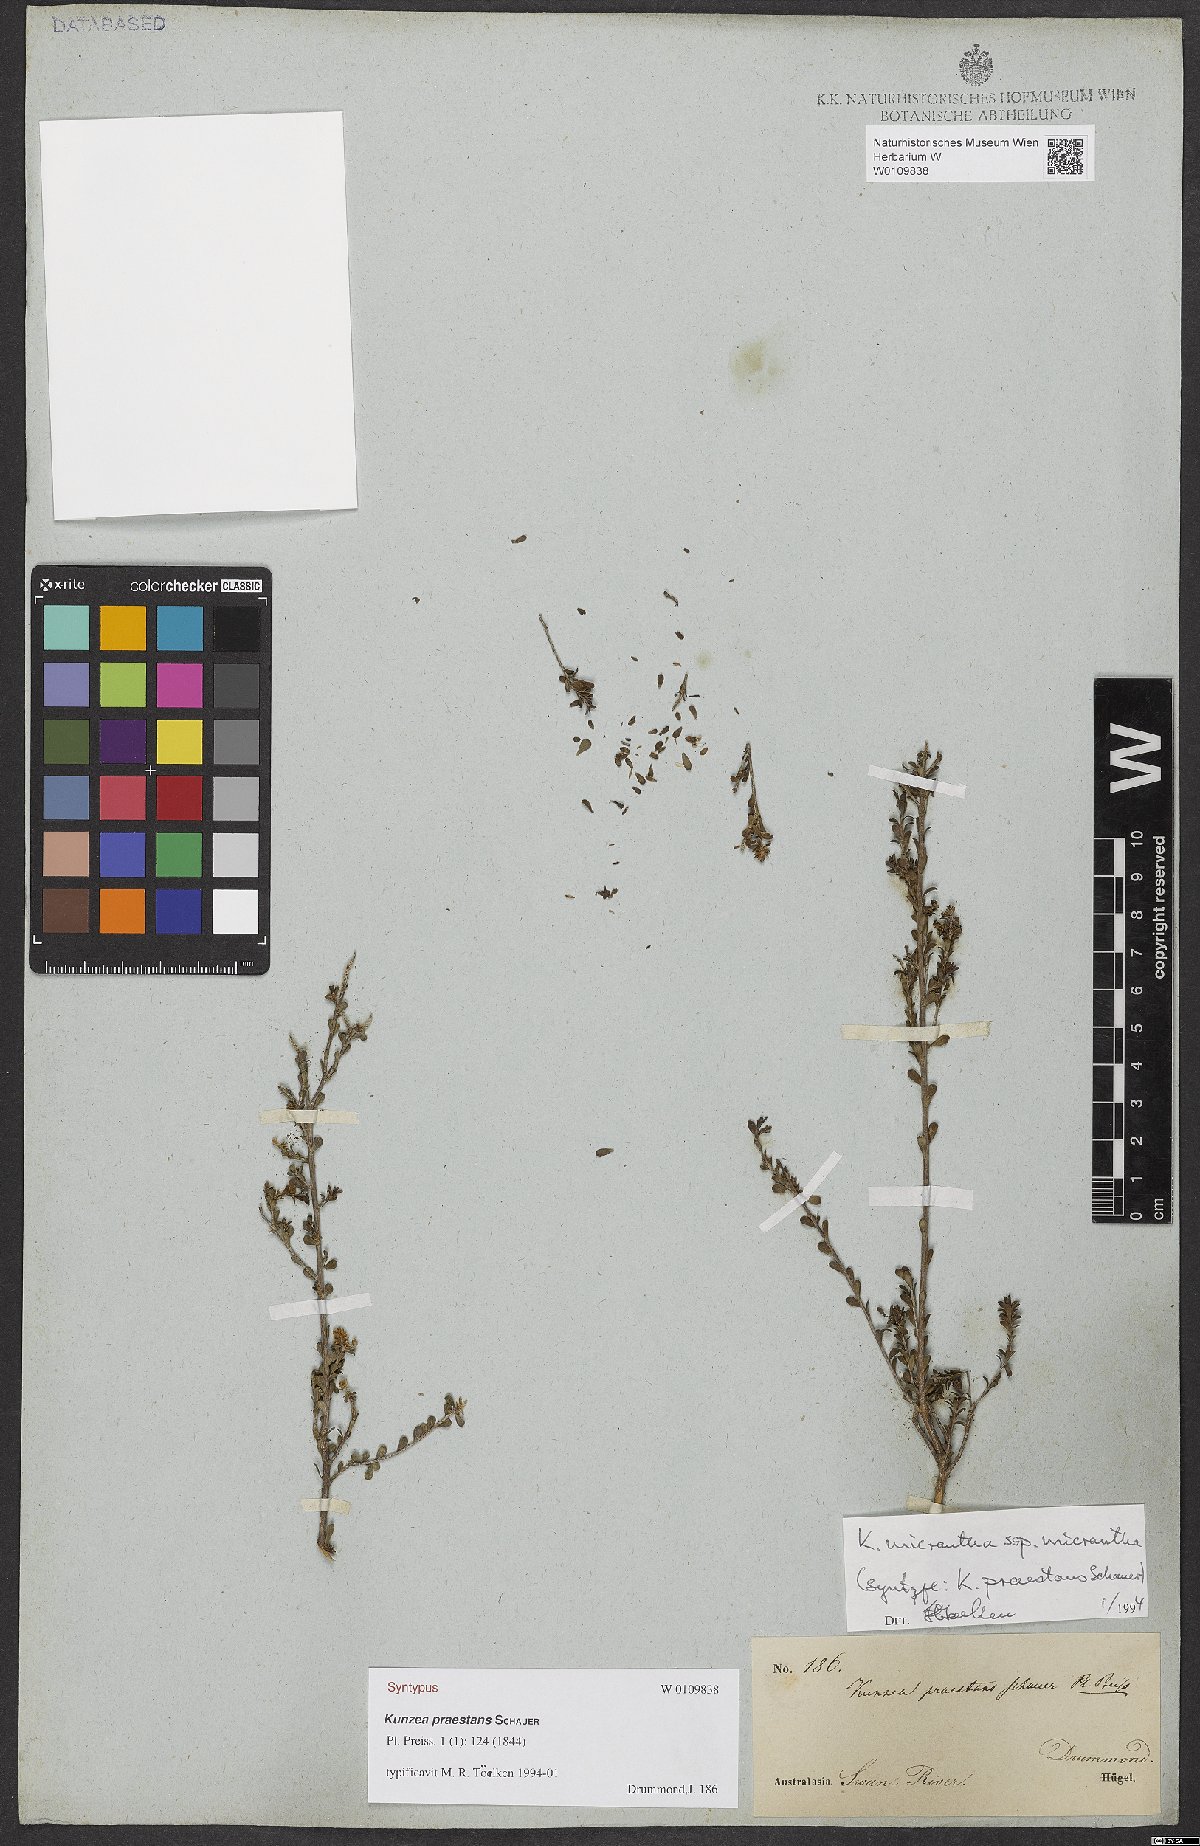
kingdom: Plantae
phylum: Tracheophyta
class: Magnoliopsida
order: Myrtales
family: Myrtaceae
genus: Kunzea
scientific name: Kunzea praestans
